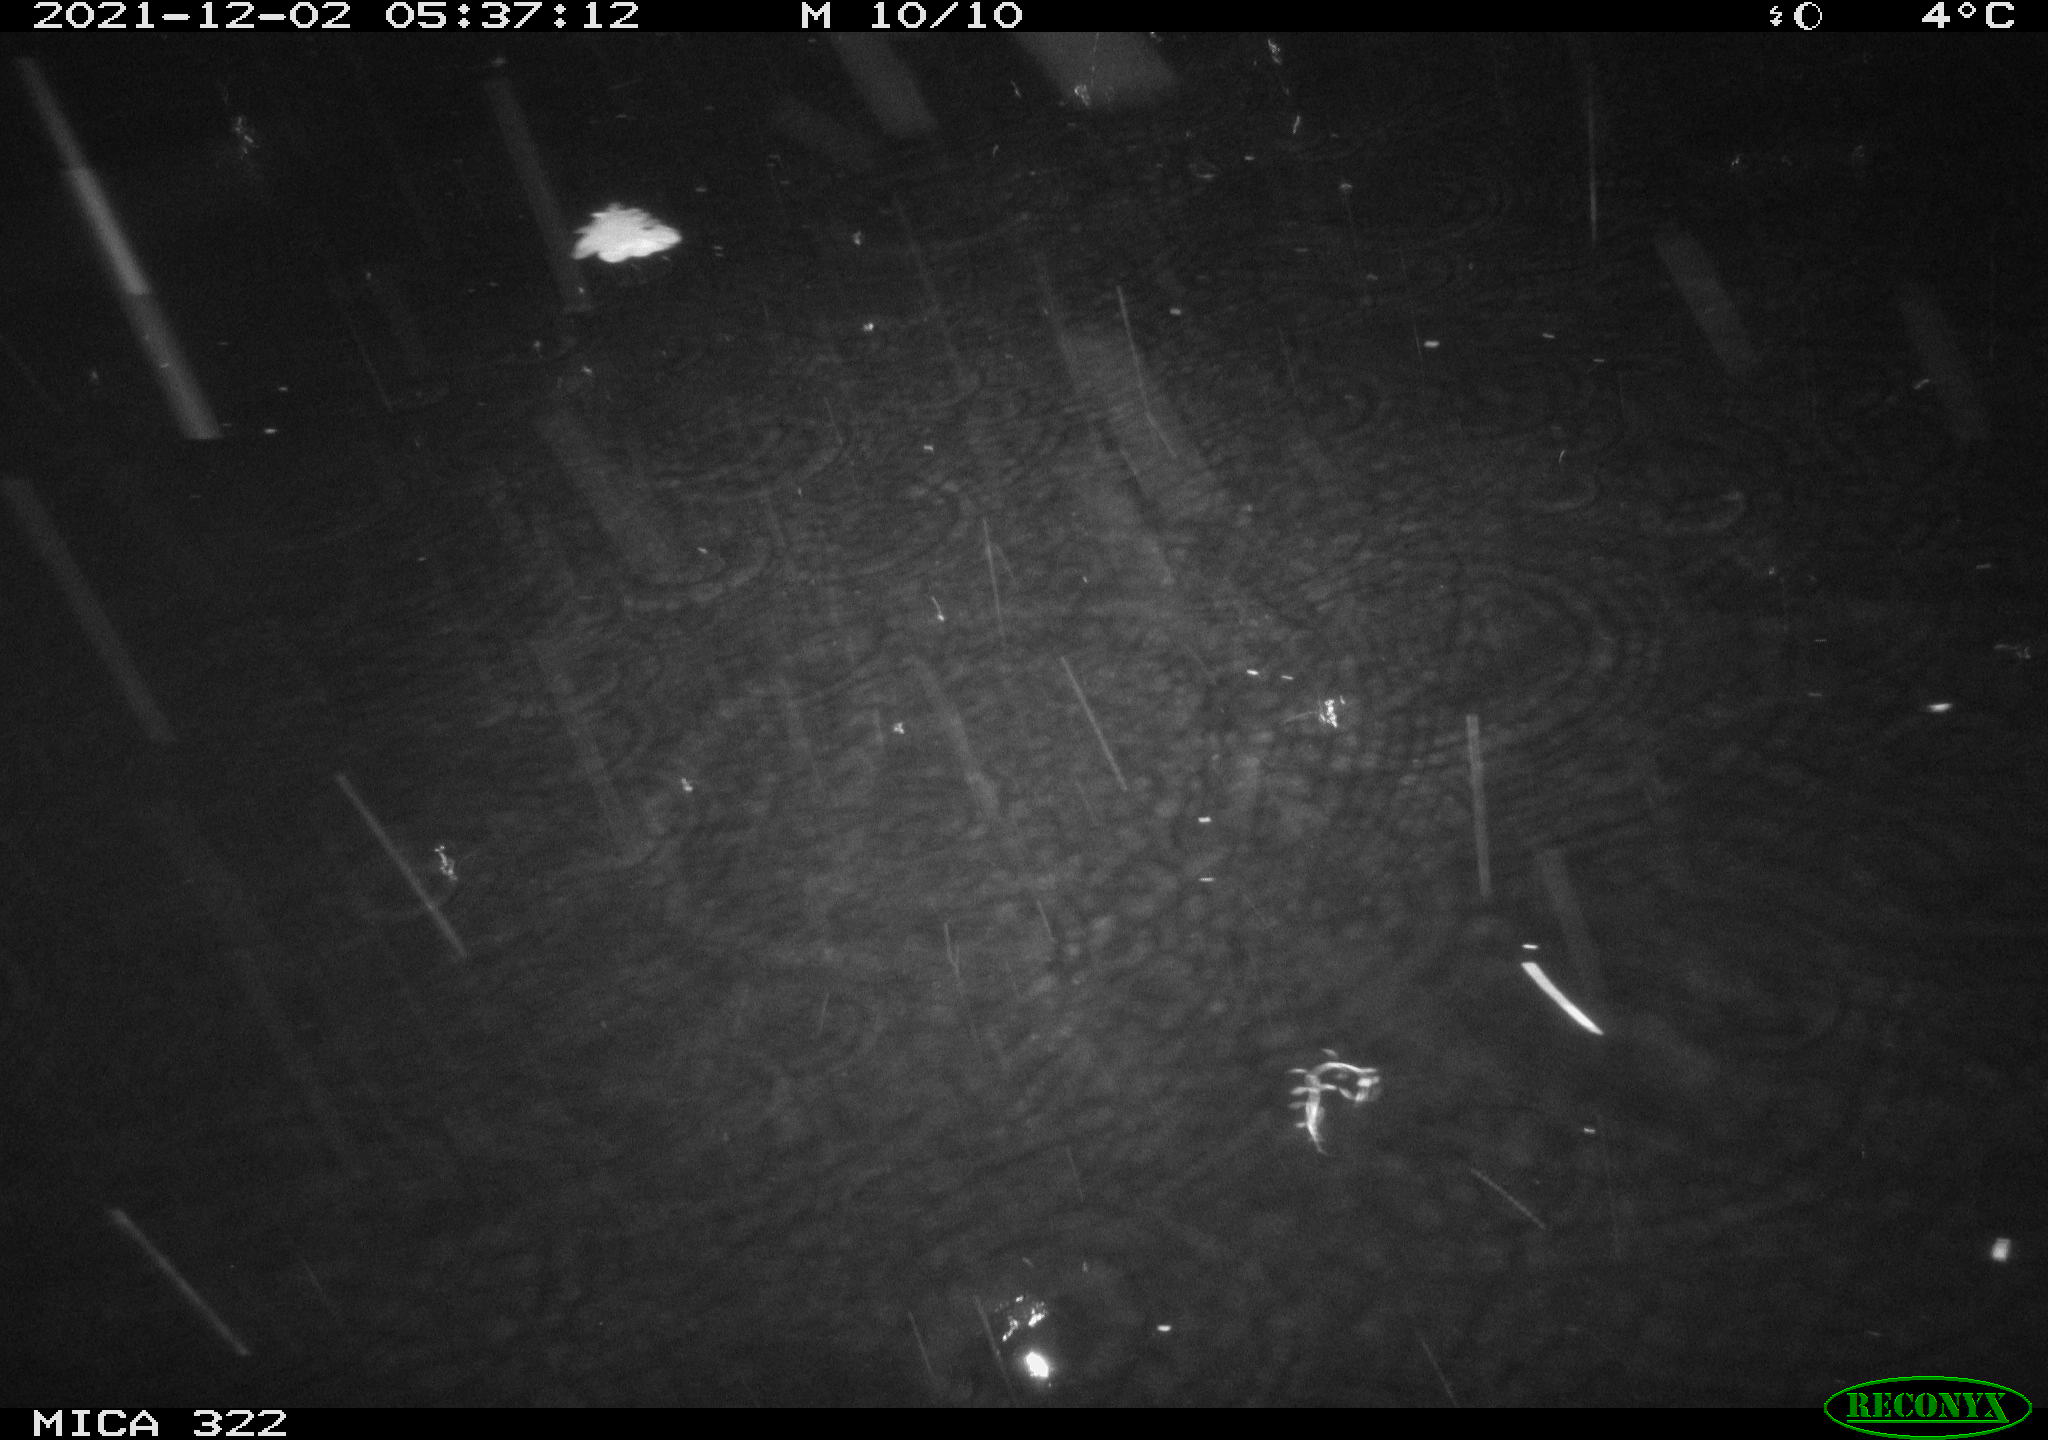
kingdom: Animalia
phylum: Chordata
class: Mammalia
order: Rodentia
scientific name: Rodentia
